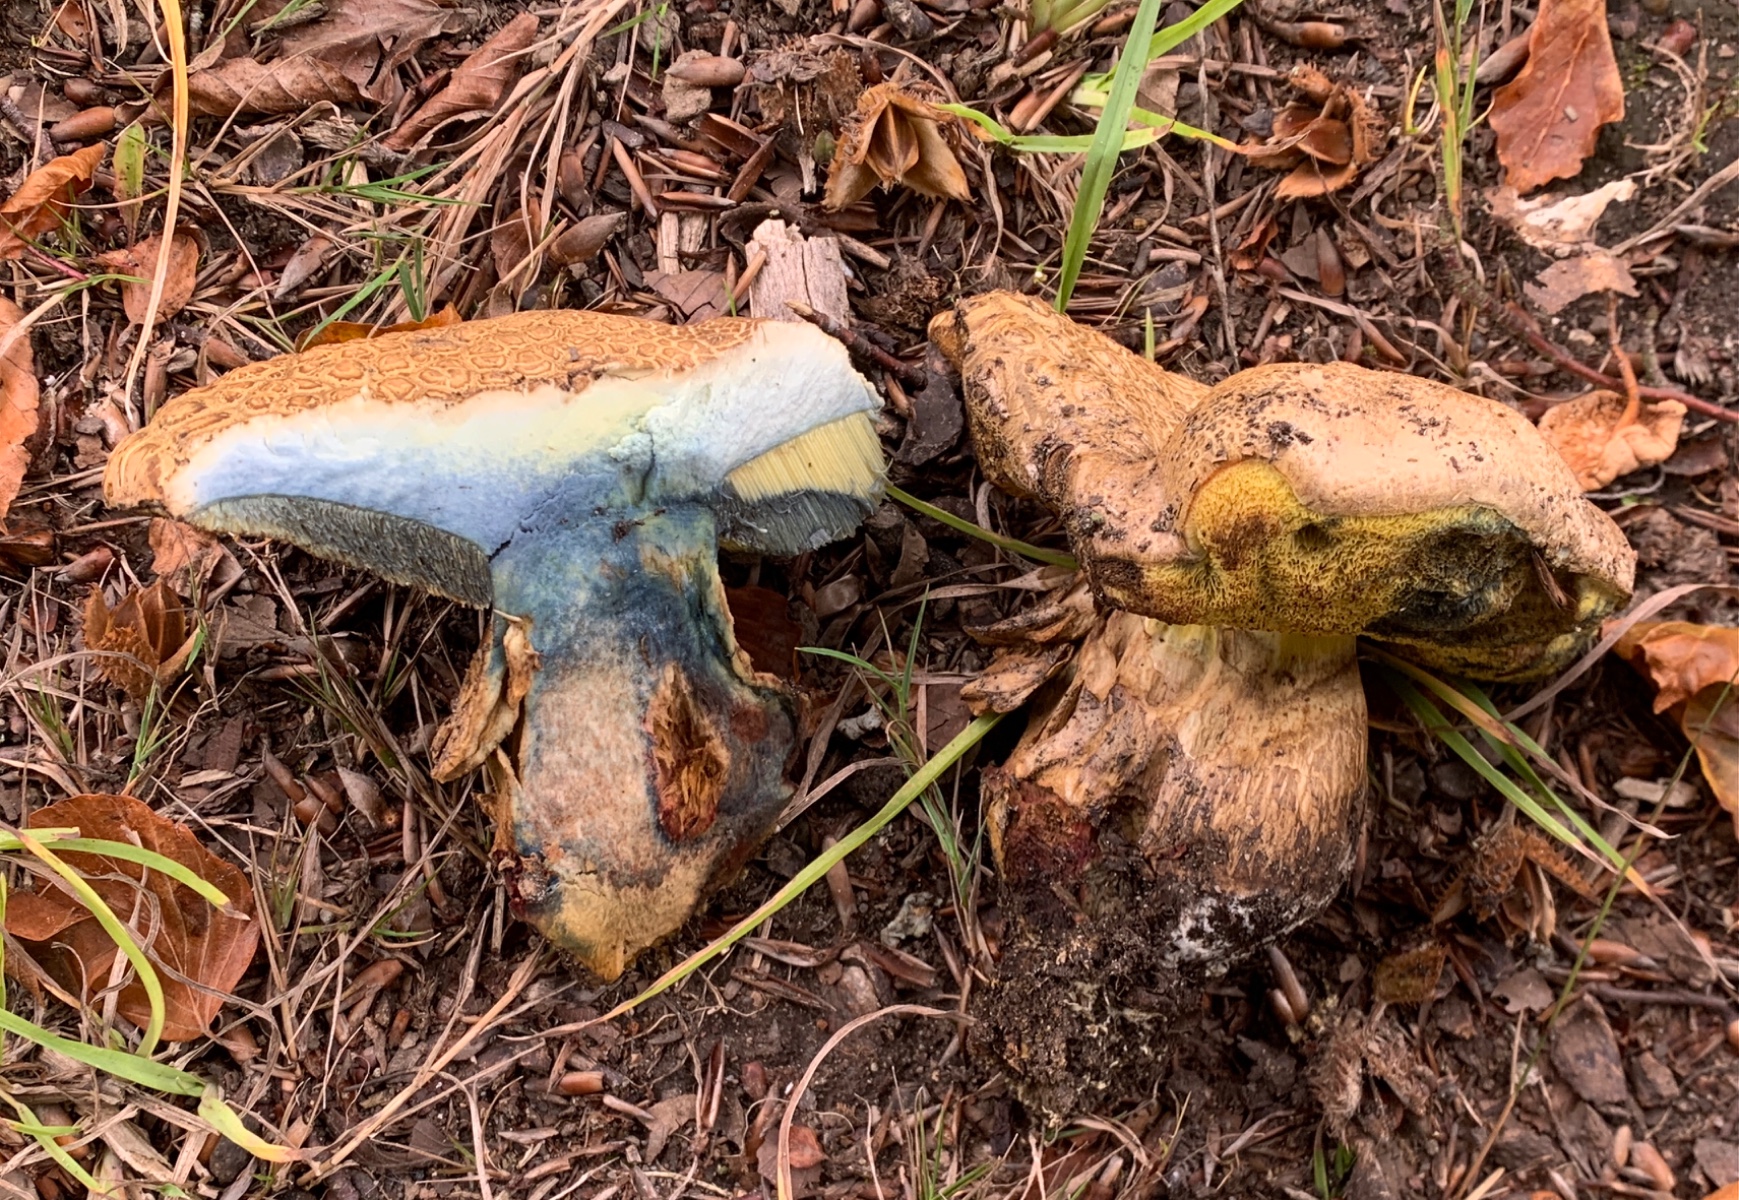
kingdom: Fungi
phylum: Basidiomycota
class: Agaricomycetes
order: Boletales
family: Boletaceae
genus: Caloboletus
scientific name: Caloboletus radicans
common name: rod-rørhat
